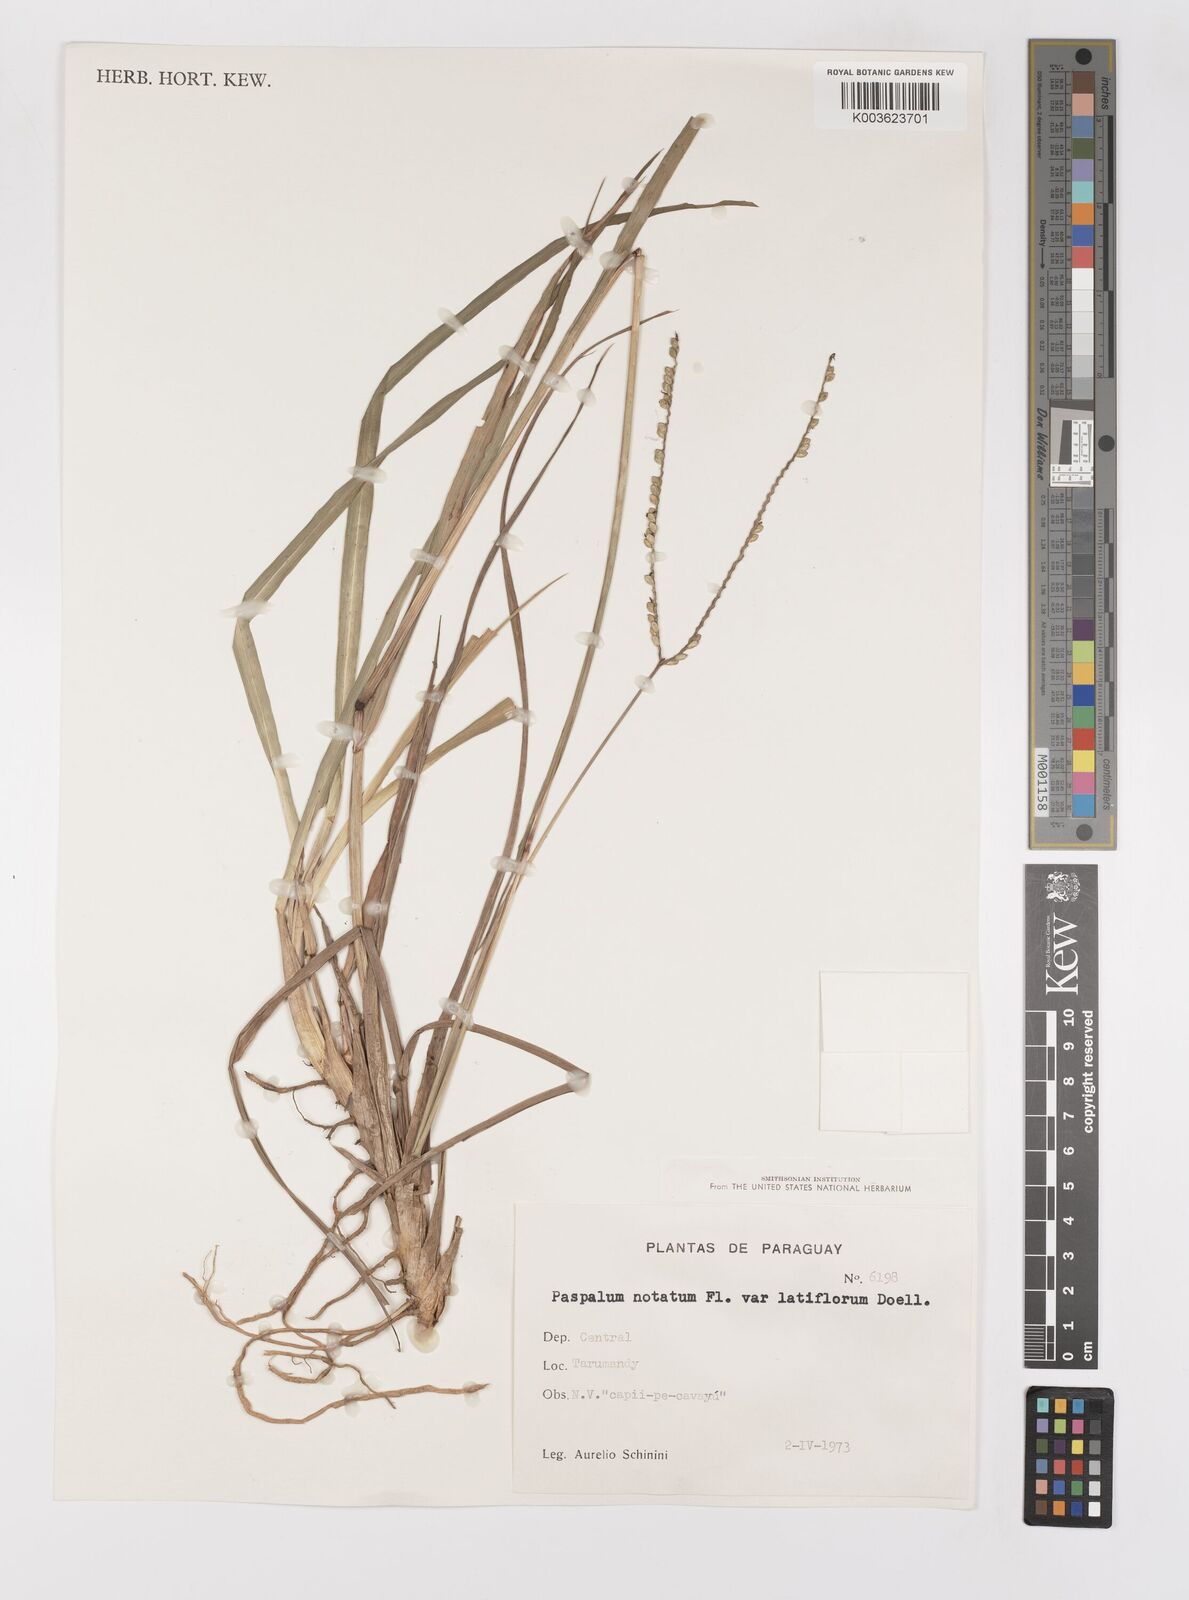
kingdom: Plantae
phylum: Tracheophyta
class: Liliopsida
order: Poales
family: Poaceae
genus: Paspalum
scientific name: Paspalum notatum
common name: Bahiagrass
